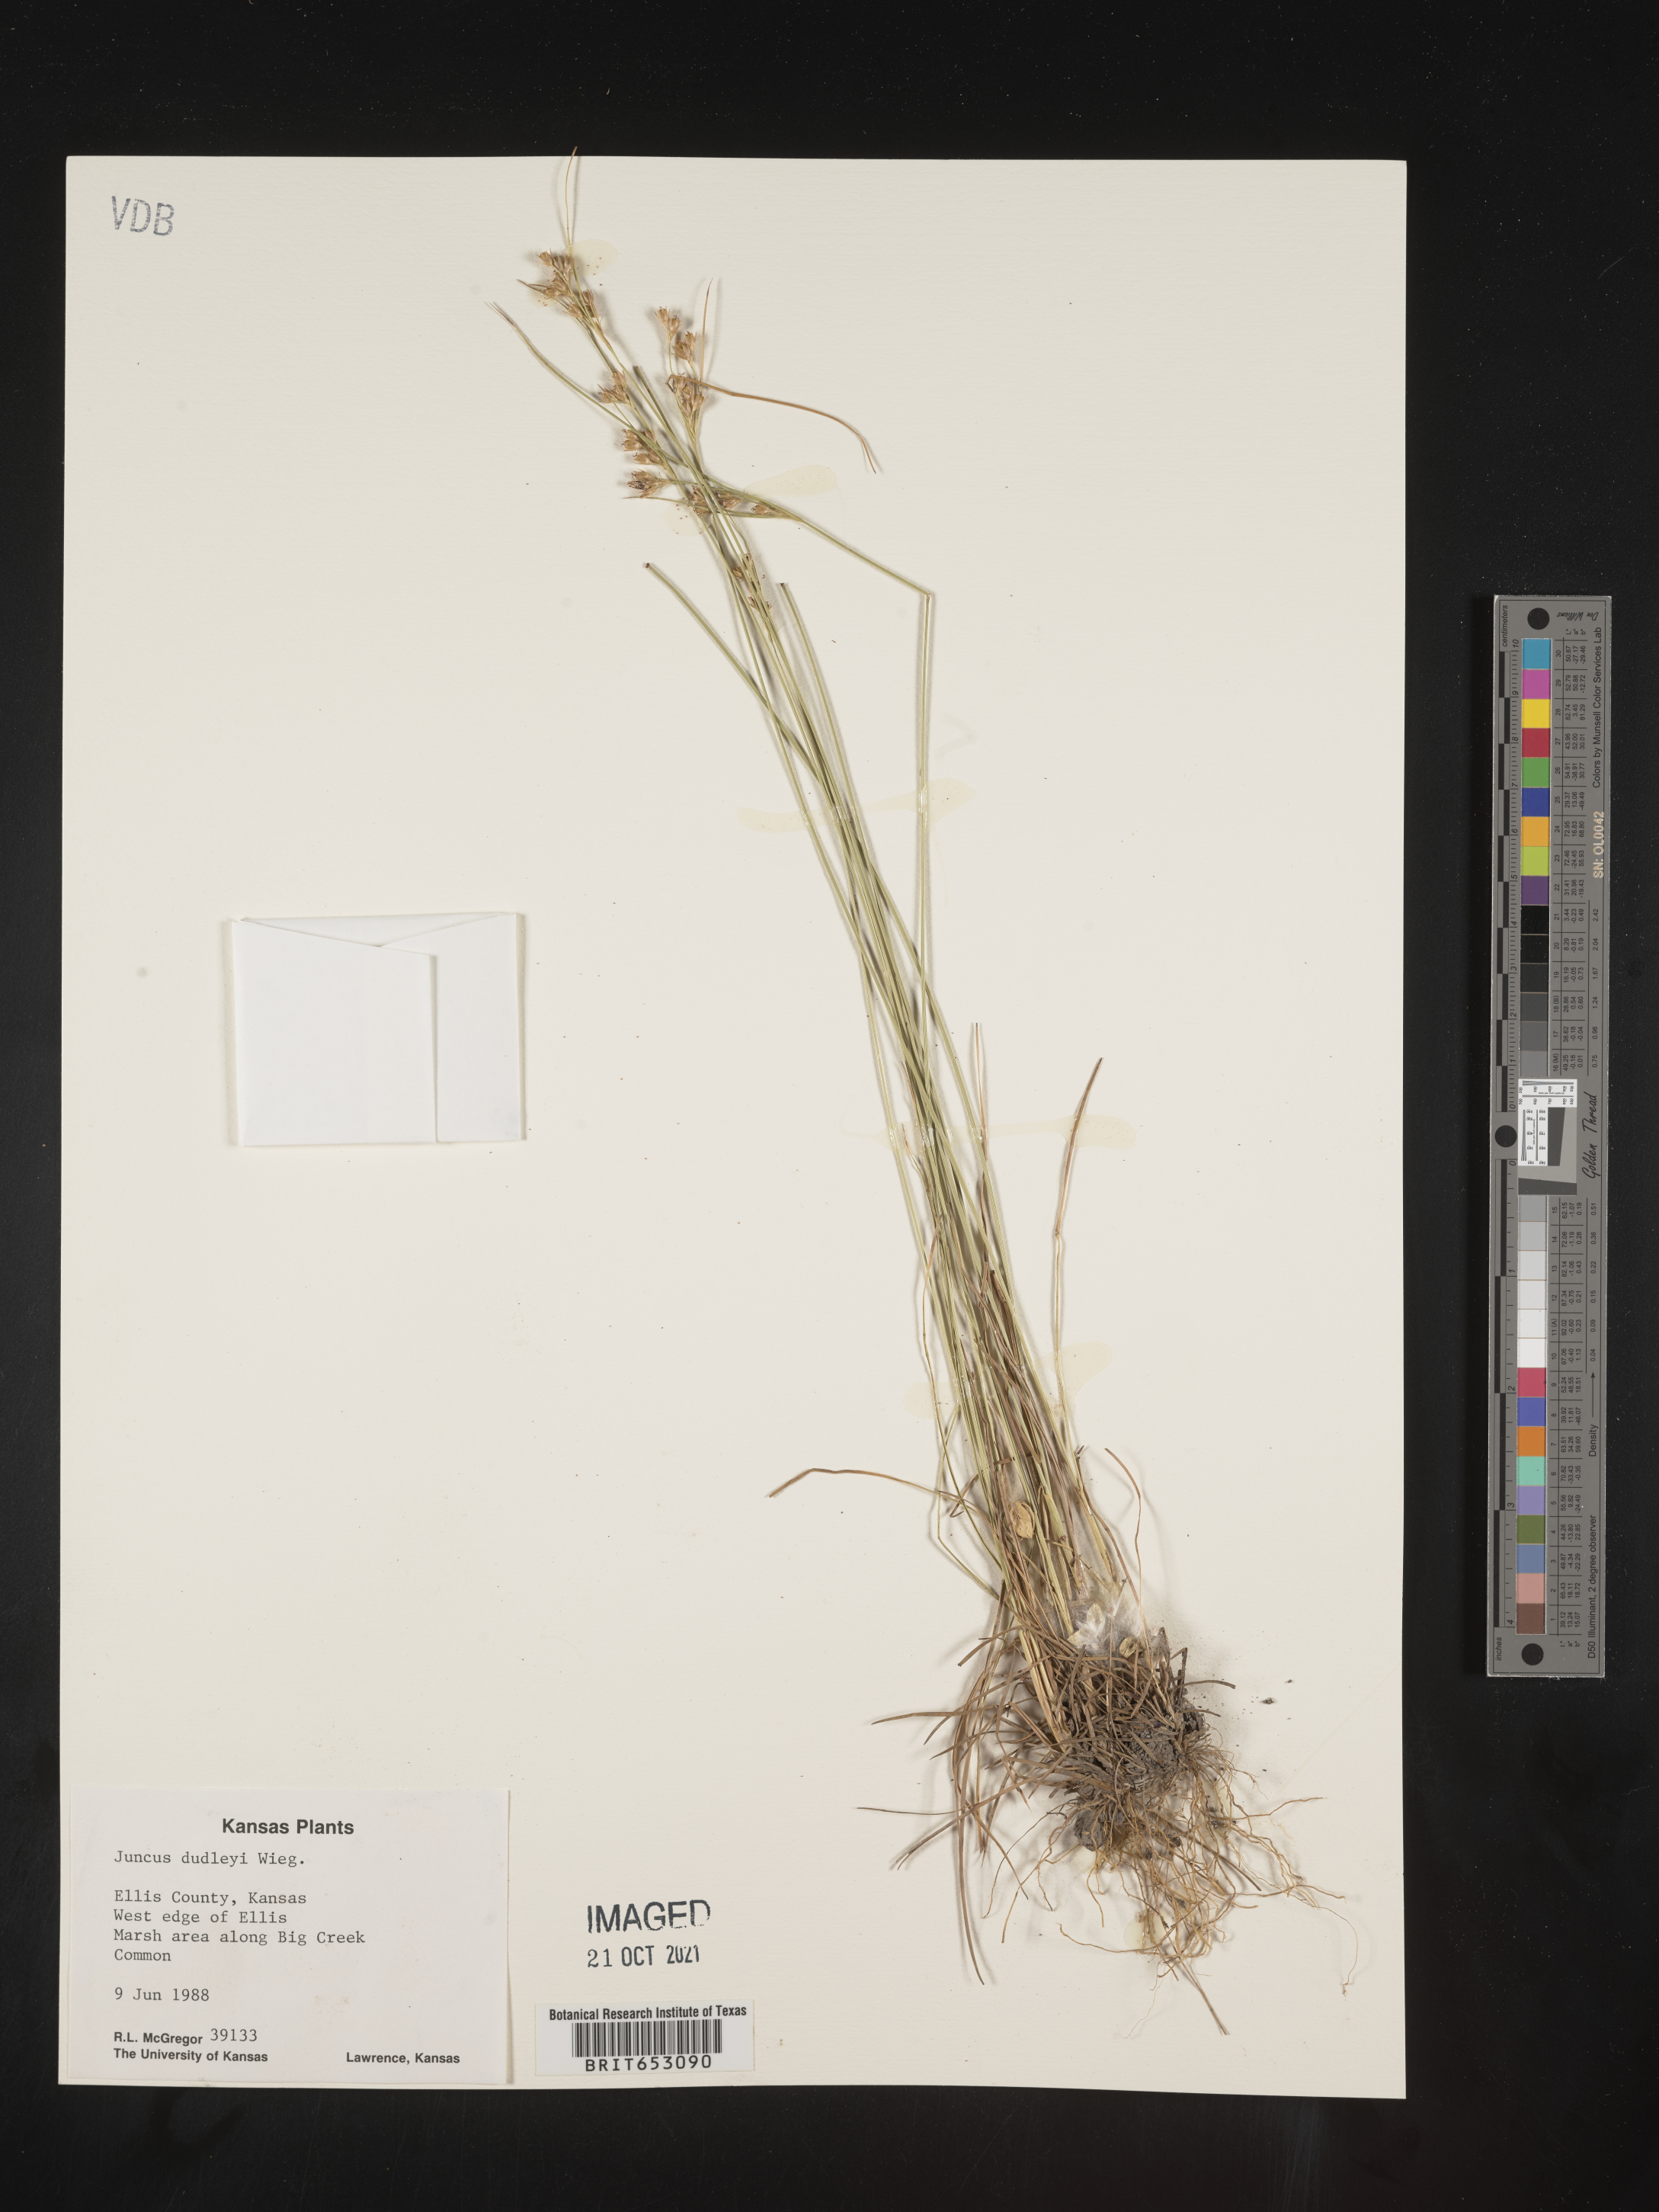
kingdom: Plantae
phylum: Tracheophyta
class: Liliopsida
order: Poales
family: Juncaceae
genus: Juncus
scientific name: Juncus dudleyi
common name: Dudley's rush
